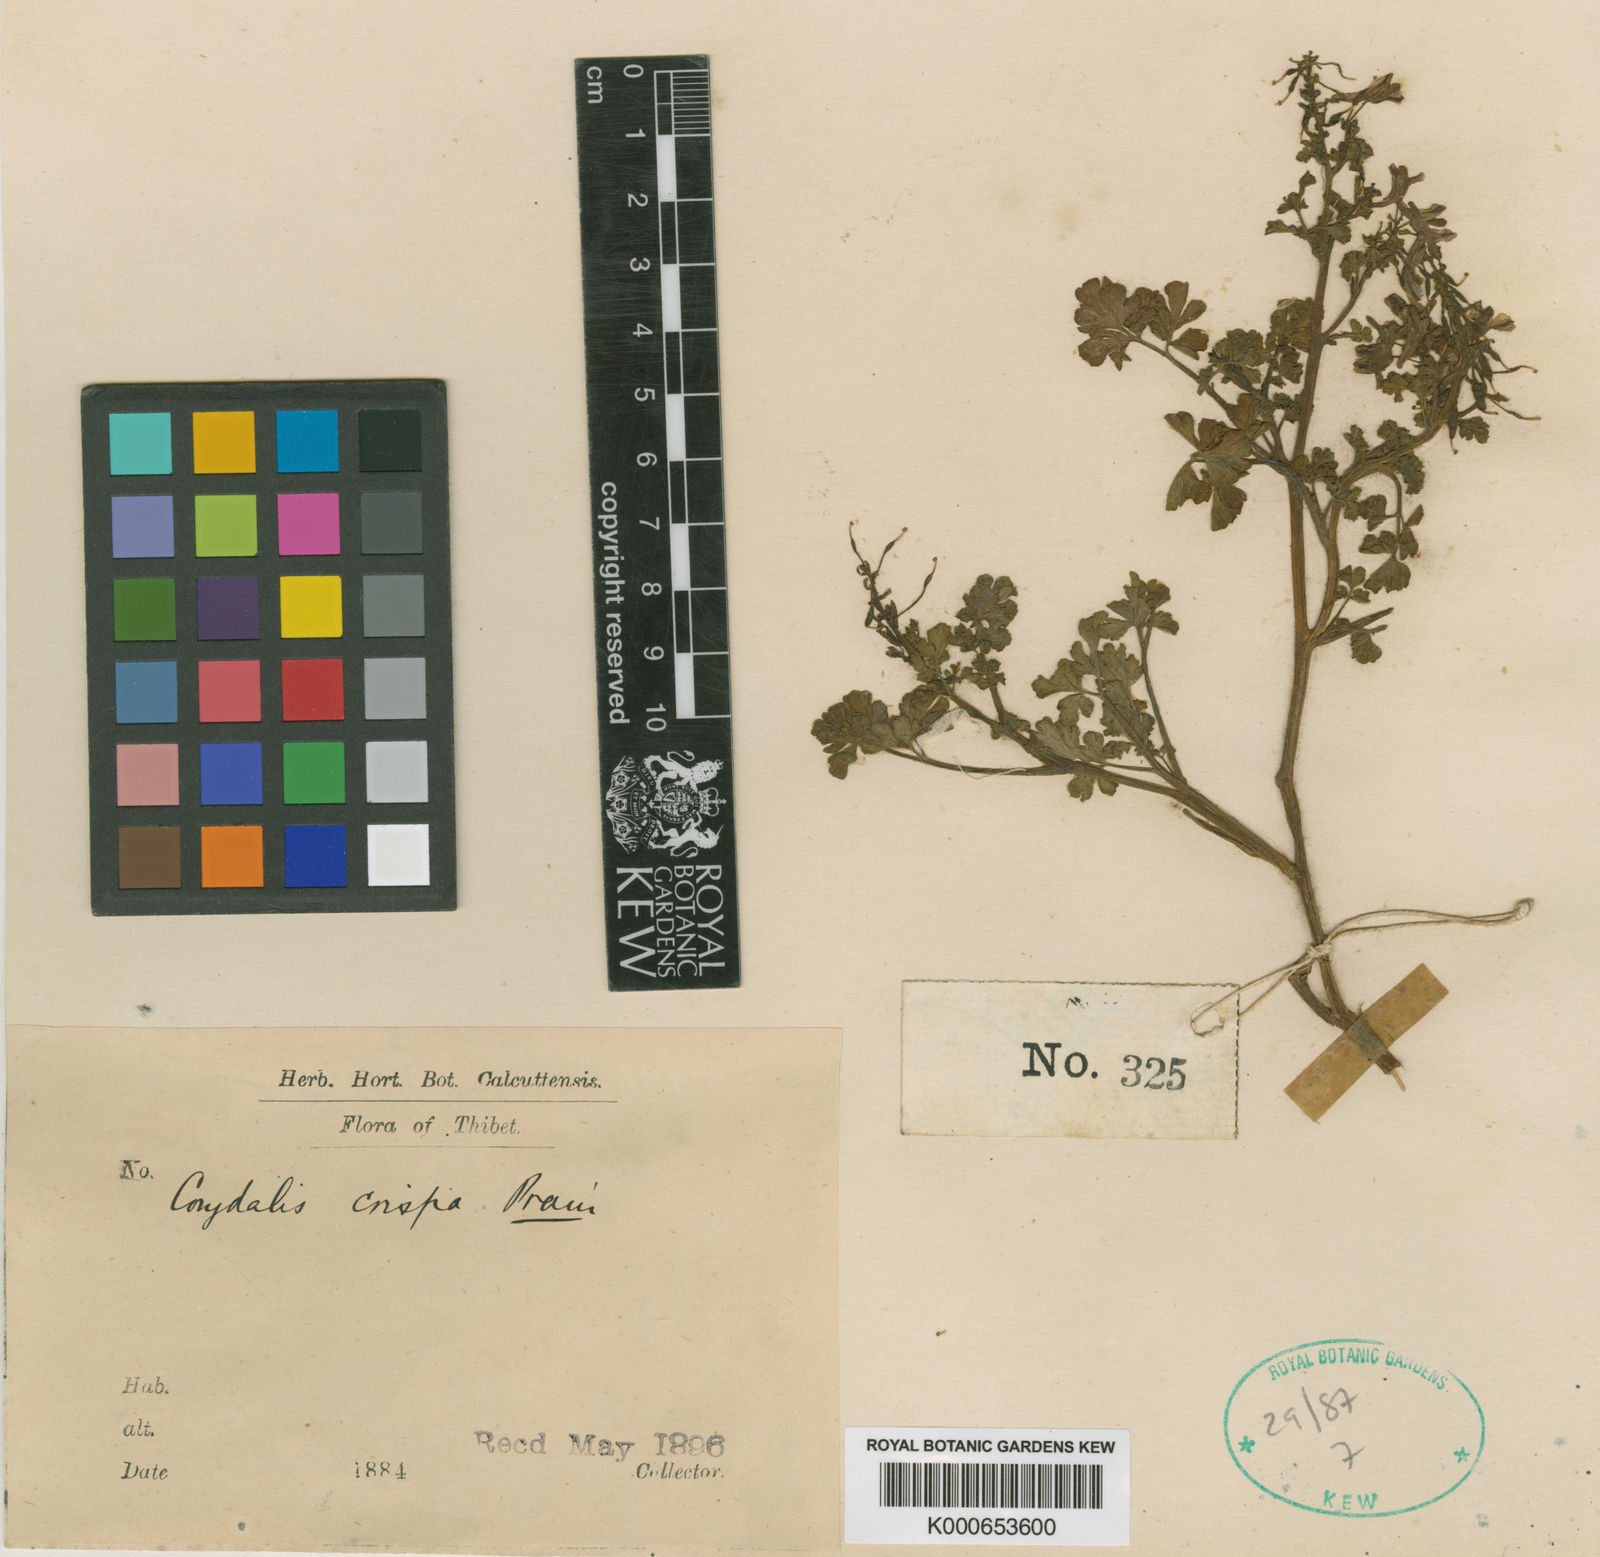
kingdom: Plantae
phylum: Tracheophyta
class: Magnoliopsida
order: Ranunculales
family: Papaveraceae
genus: Corydalis
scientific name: Corydalis crispa
